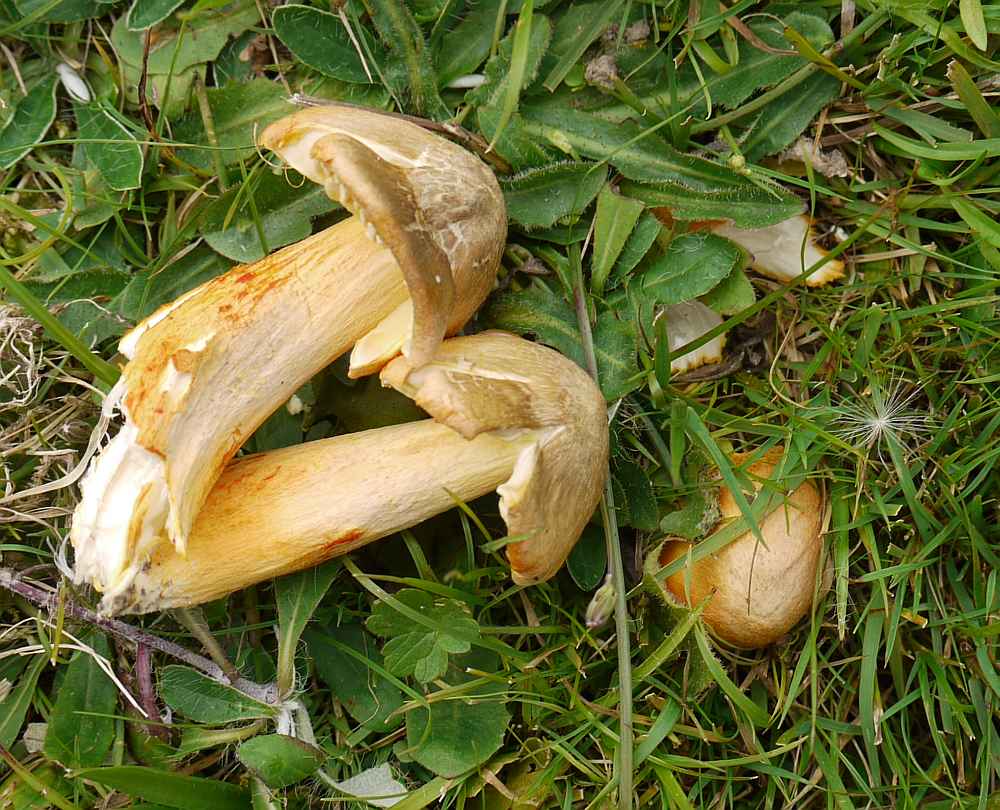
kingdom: Fungi
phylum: Basidiomycota
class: Agaricomycetes
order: Agaricales
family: Hygrophoraceae
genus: Hygrocybe
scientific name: Hygrocybe intermedia
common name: trævlet vokshat
